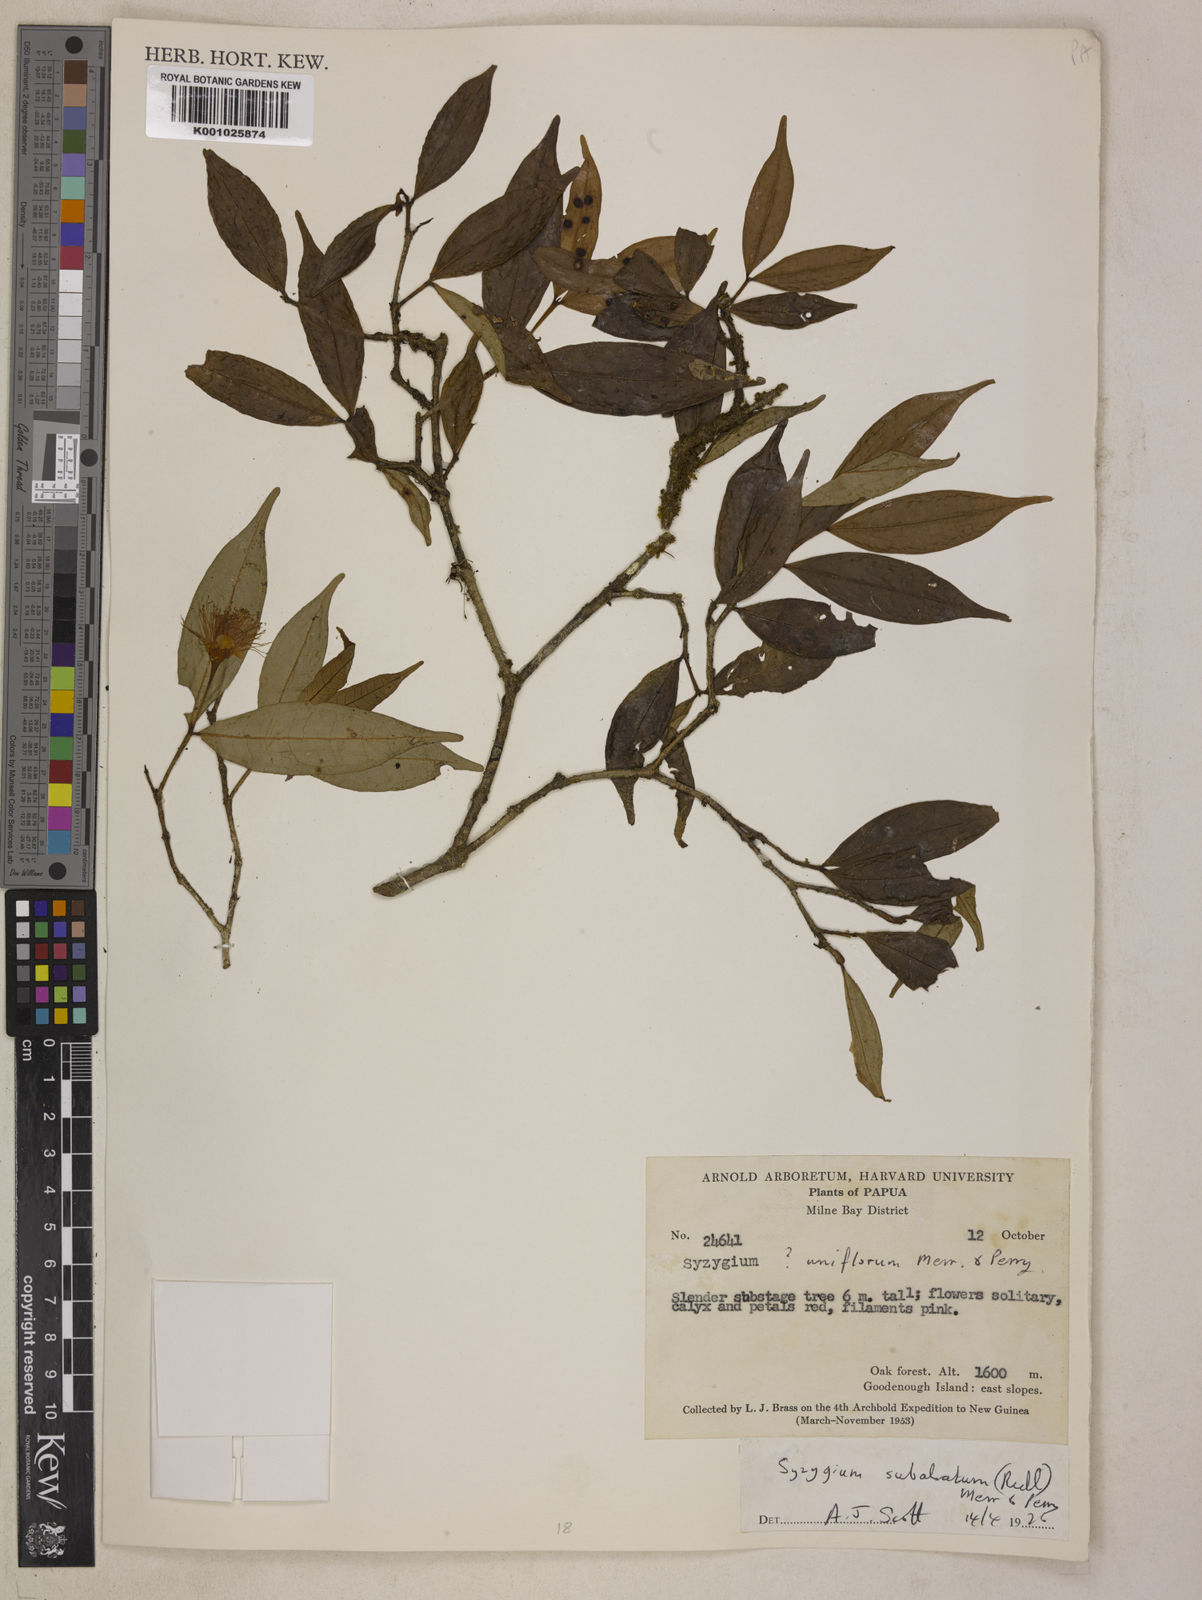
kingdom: Plantae
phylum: Tracheophyta
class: Magnoliopsida
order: Myrtales
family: Myrtaceae
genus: Syzygium
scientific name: Syzygium subalatum
